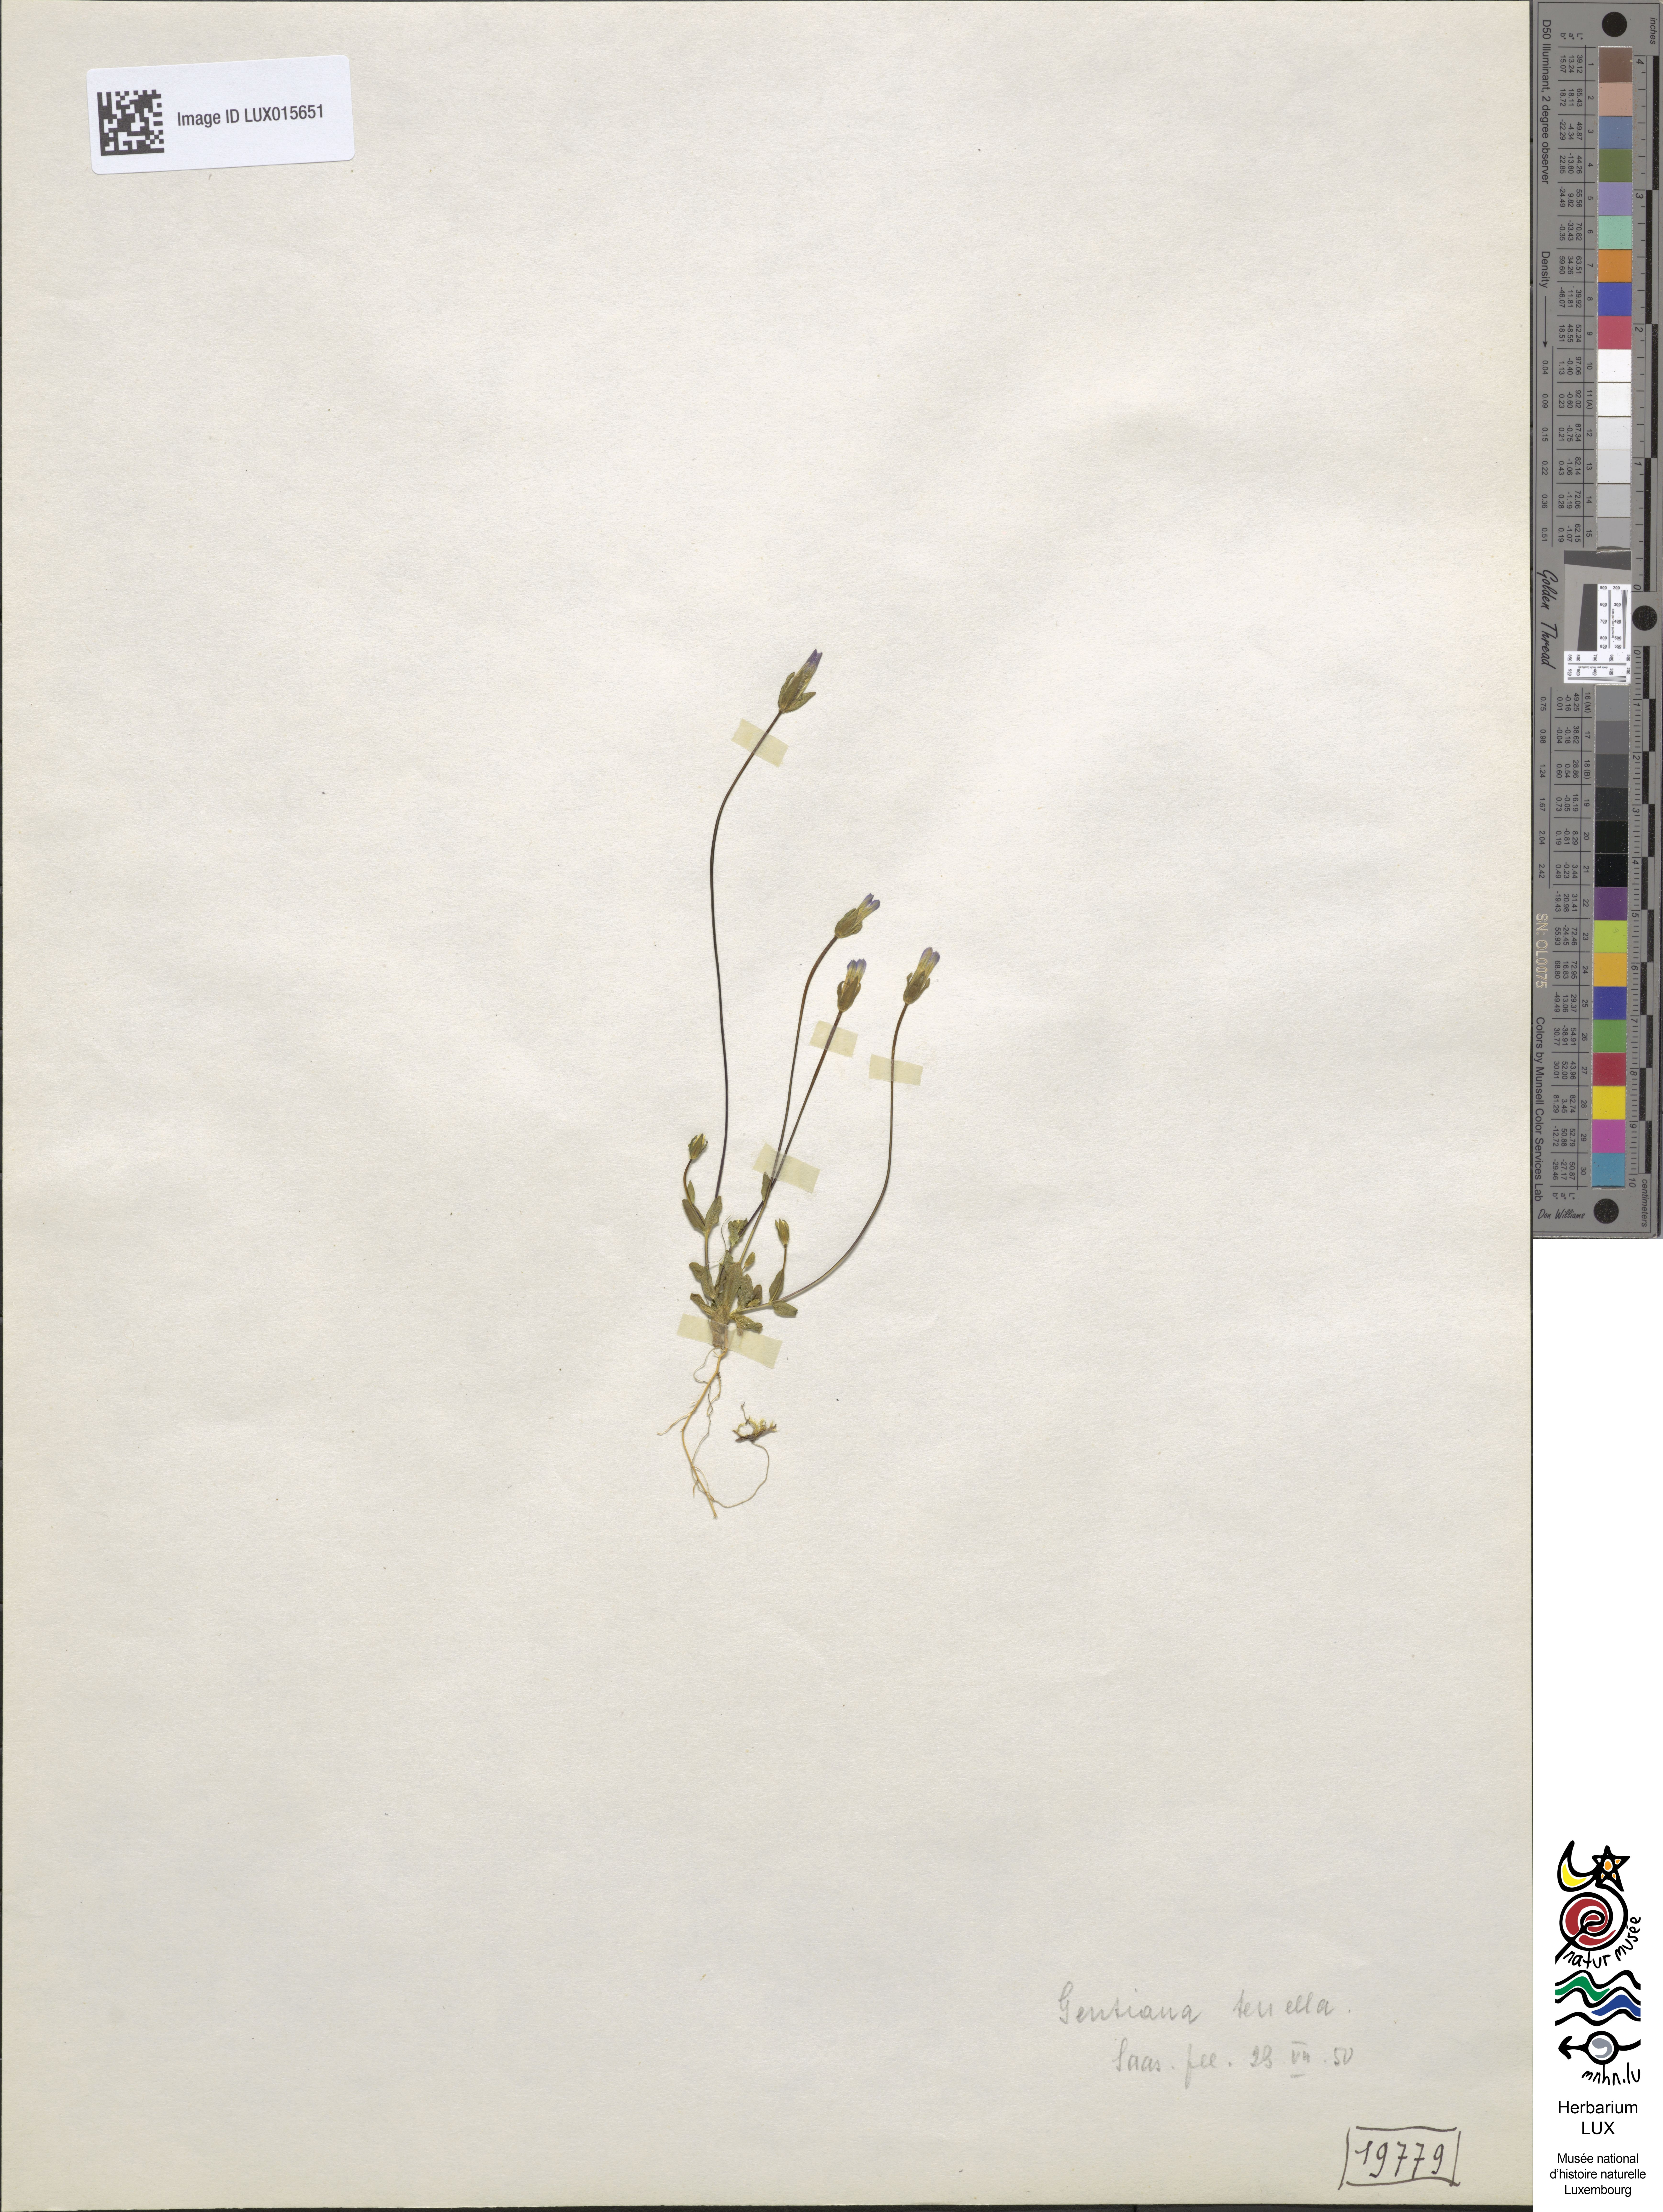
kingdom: Plantae
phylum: Tracheophyta
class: Magnoliopsida
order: Gentianales
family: Gentianaceae
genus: Comastoma
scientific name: Comastoma tenellum
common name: Dane's dwarf gentian
